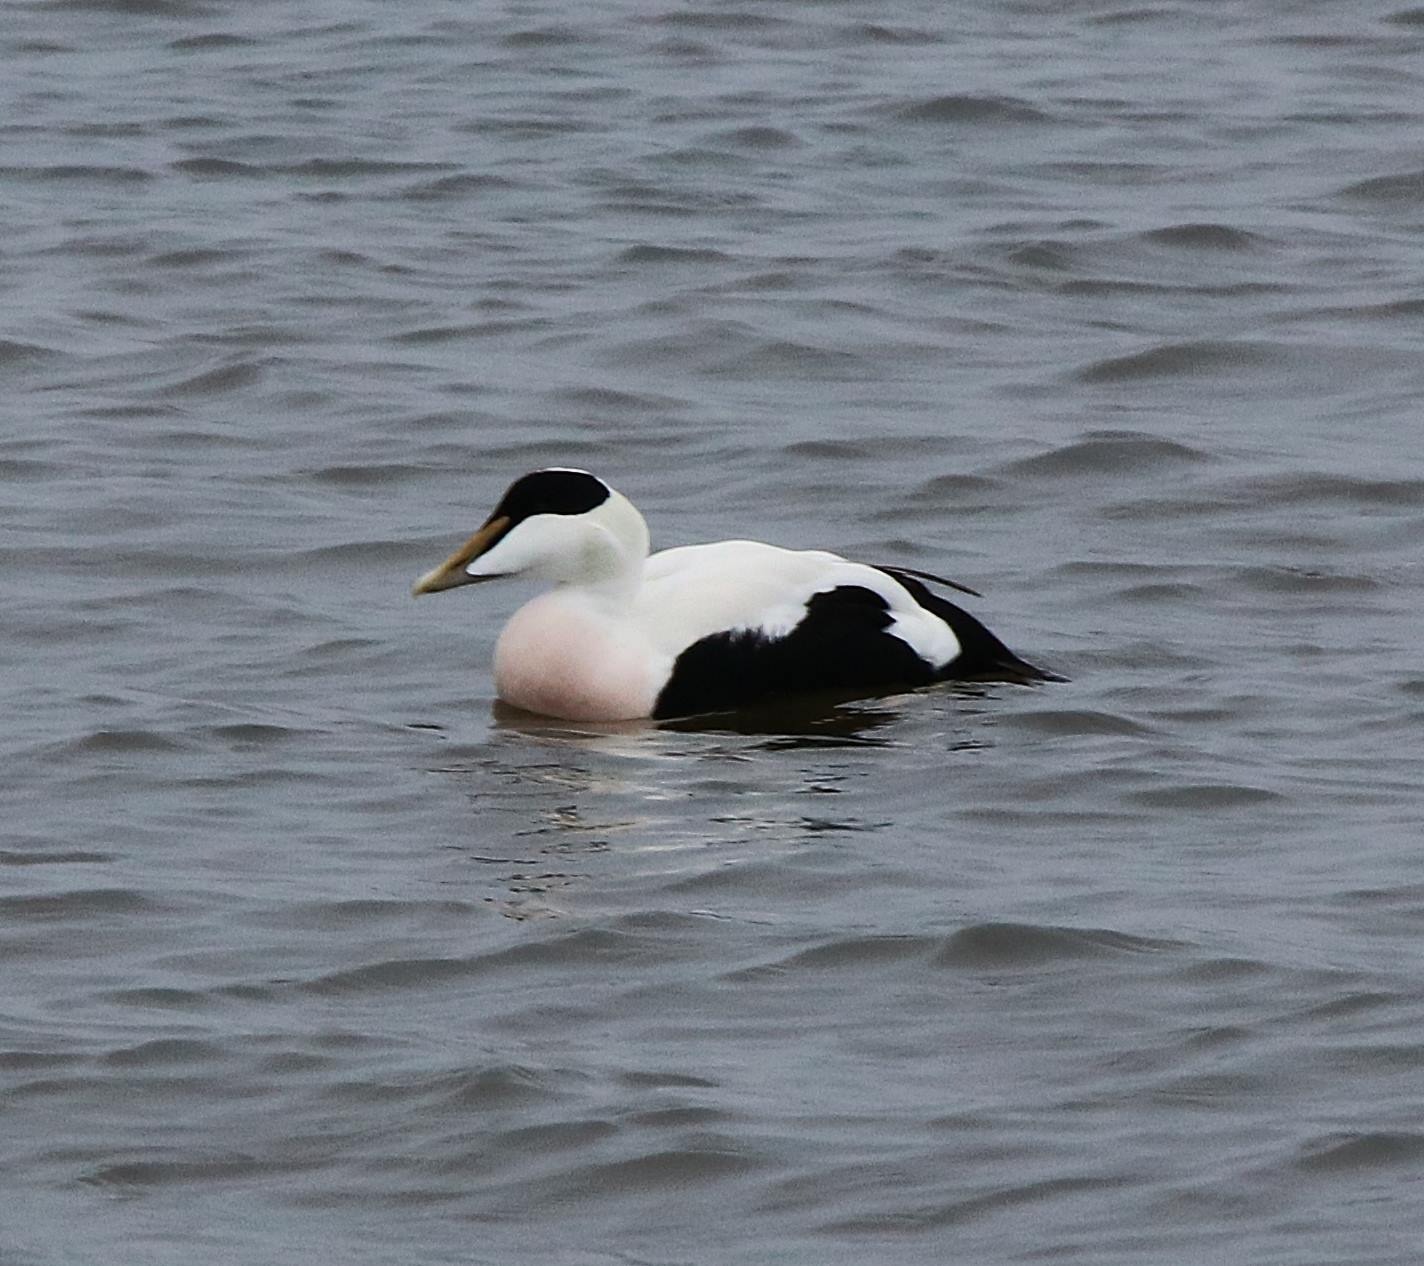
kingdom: Animalia
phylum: Chordata
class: Aves
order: Anseriformes
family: Anatidae
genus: Somateria
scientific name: Somateria mollissima
